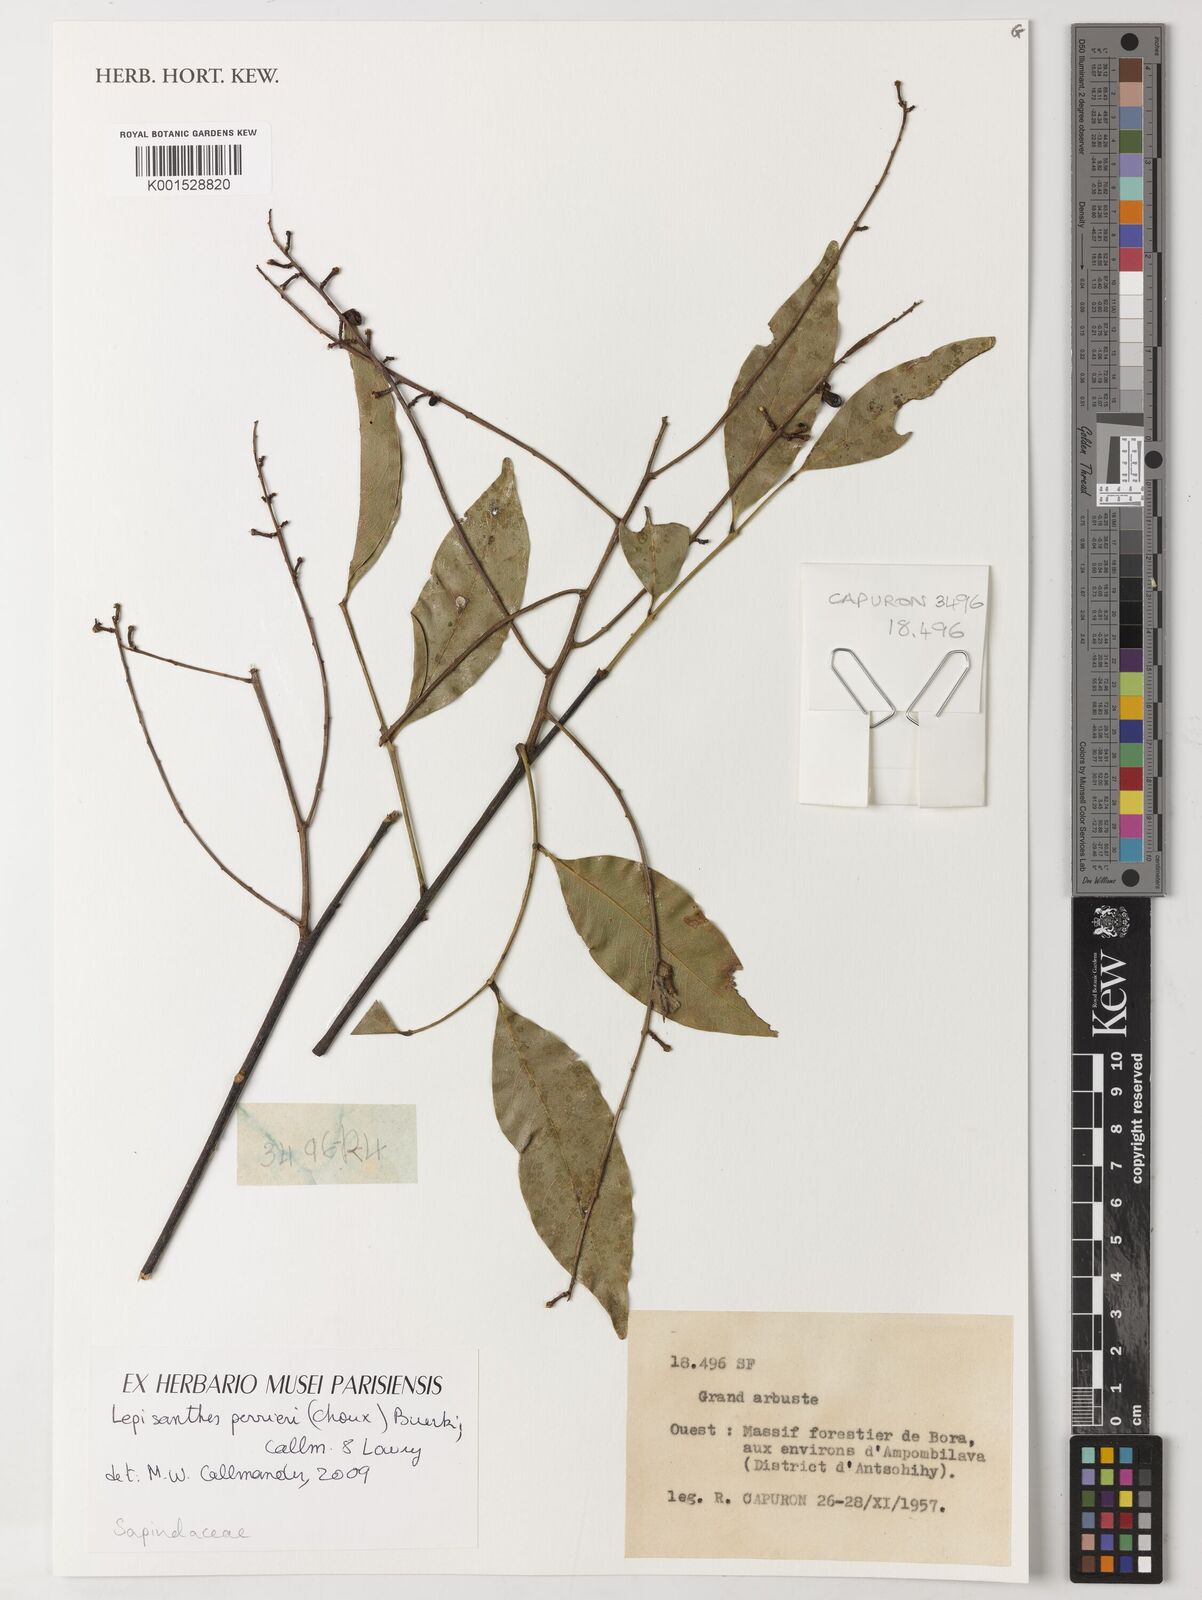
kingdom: Plantae
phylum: Tracheophyta
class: Magnoliopsida
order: Sapindales
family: Sapindaceae
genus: Lepisanthes
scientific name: Lepisanthes perrieri
